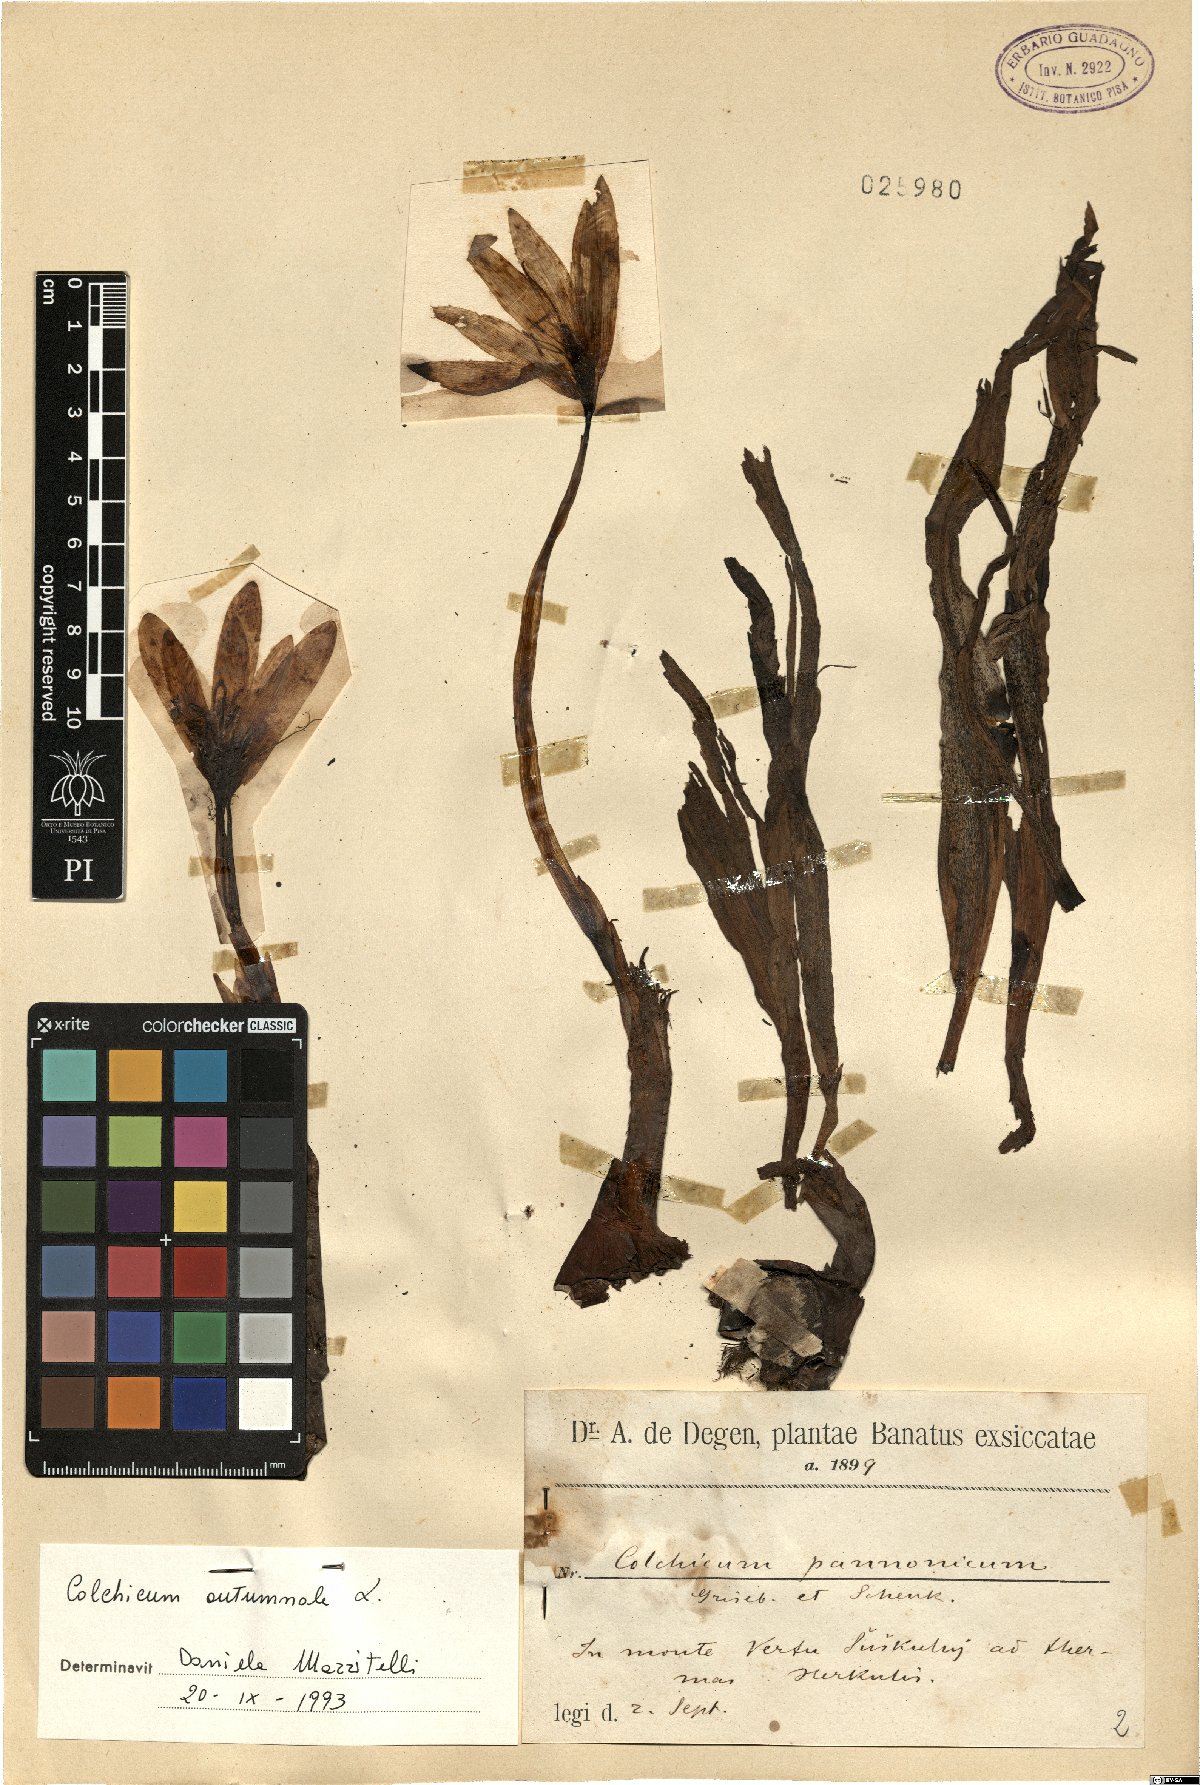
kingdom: Plantae
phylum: Tracheophyta
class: Liliopsida
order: Liliales
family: Colchicaceae
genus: Colchicum
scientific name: Colchicum autumnale
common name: Autumn crocus
